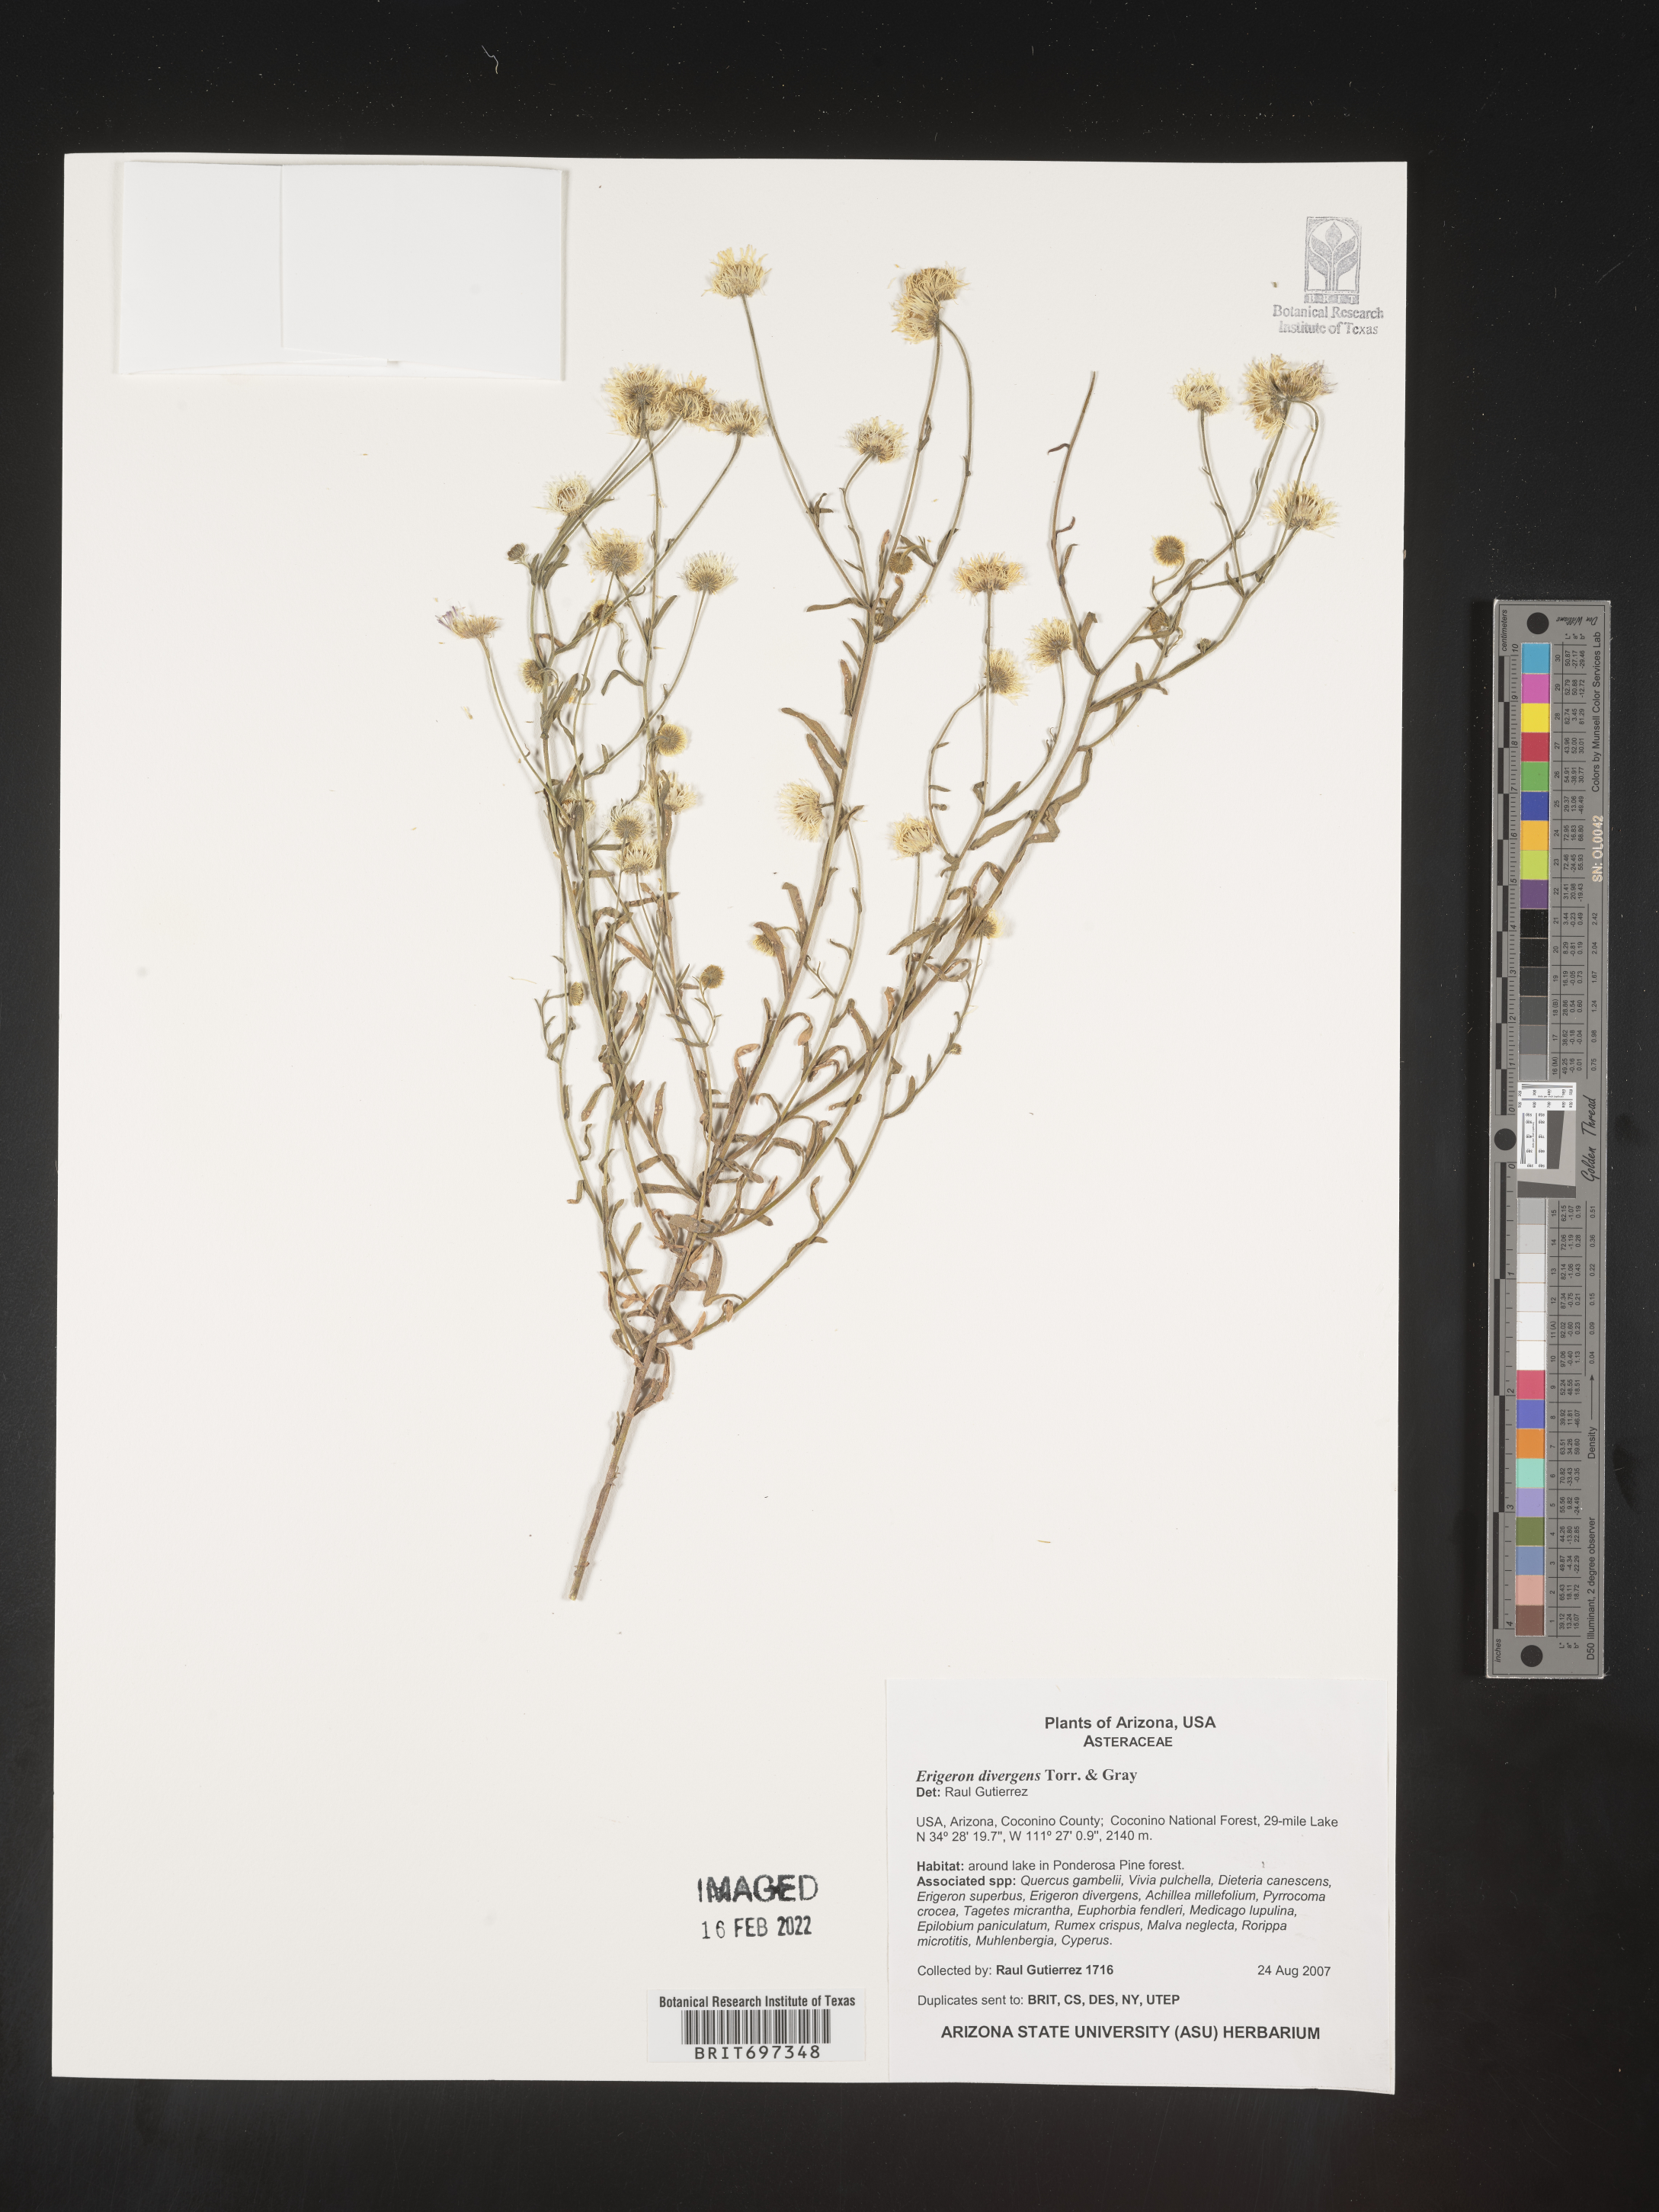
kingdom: Plantae
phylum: Tracheophyta
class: Magnoliopsida
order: Asterales
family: Asteraceae
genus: Erigeron
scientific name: Erigeron divergens
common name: Diffuse fleabane
